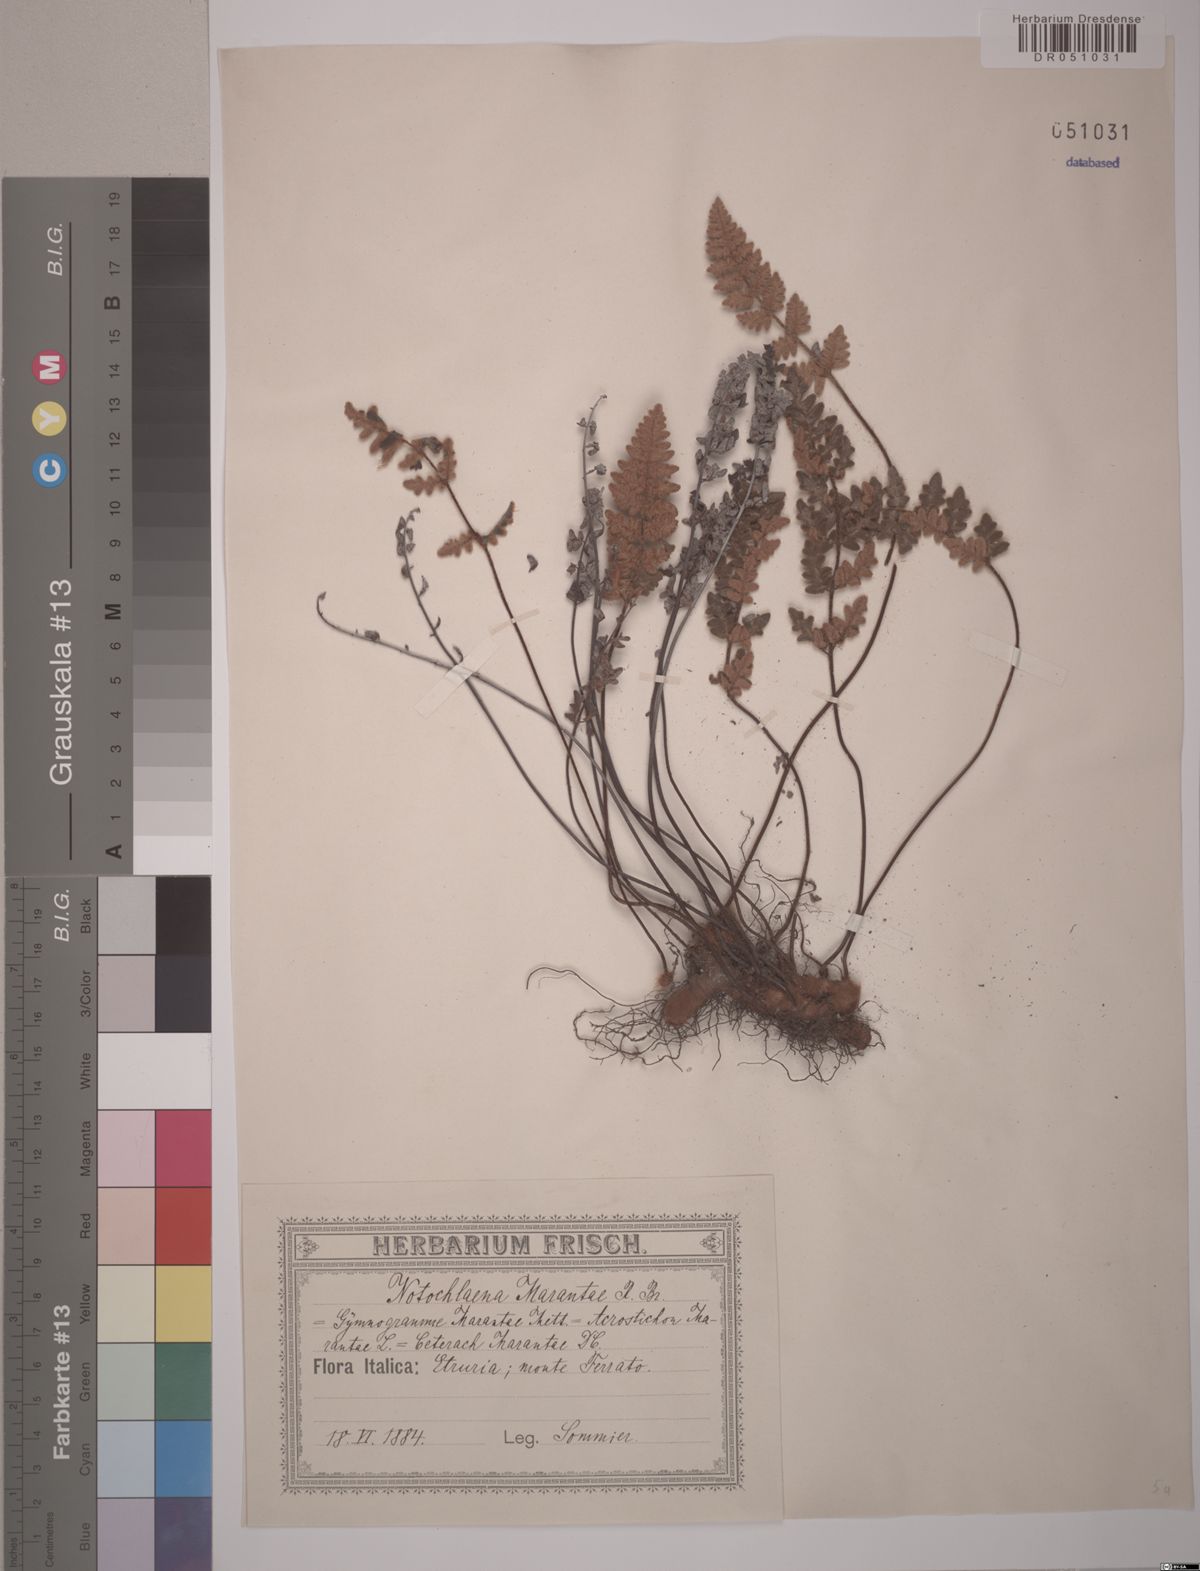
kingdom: Plantae
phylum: Tracheophyta
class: Polypodiopsida
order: Polypodiales
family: Pteridaceae
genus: Paragymnopteris
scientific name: Paragymnopteris marantae
